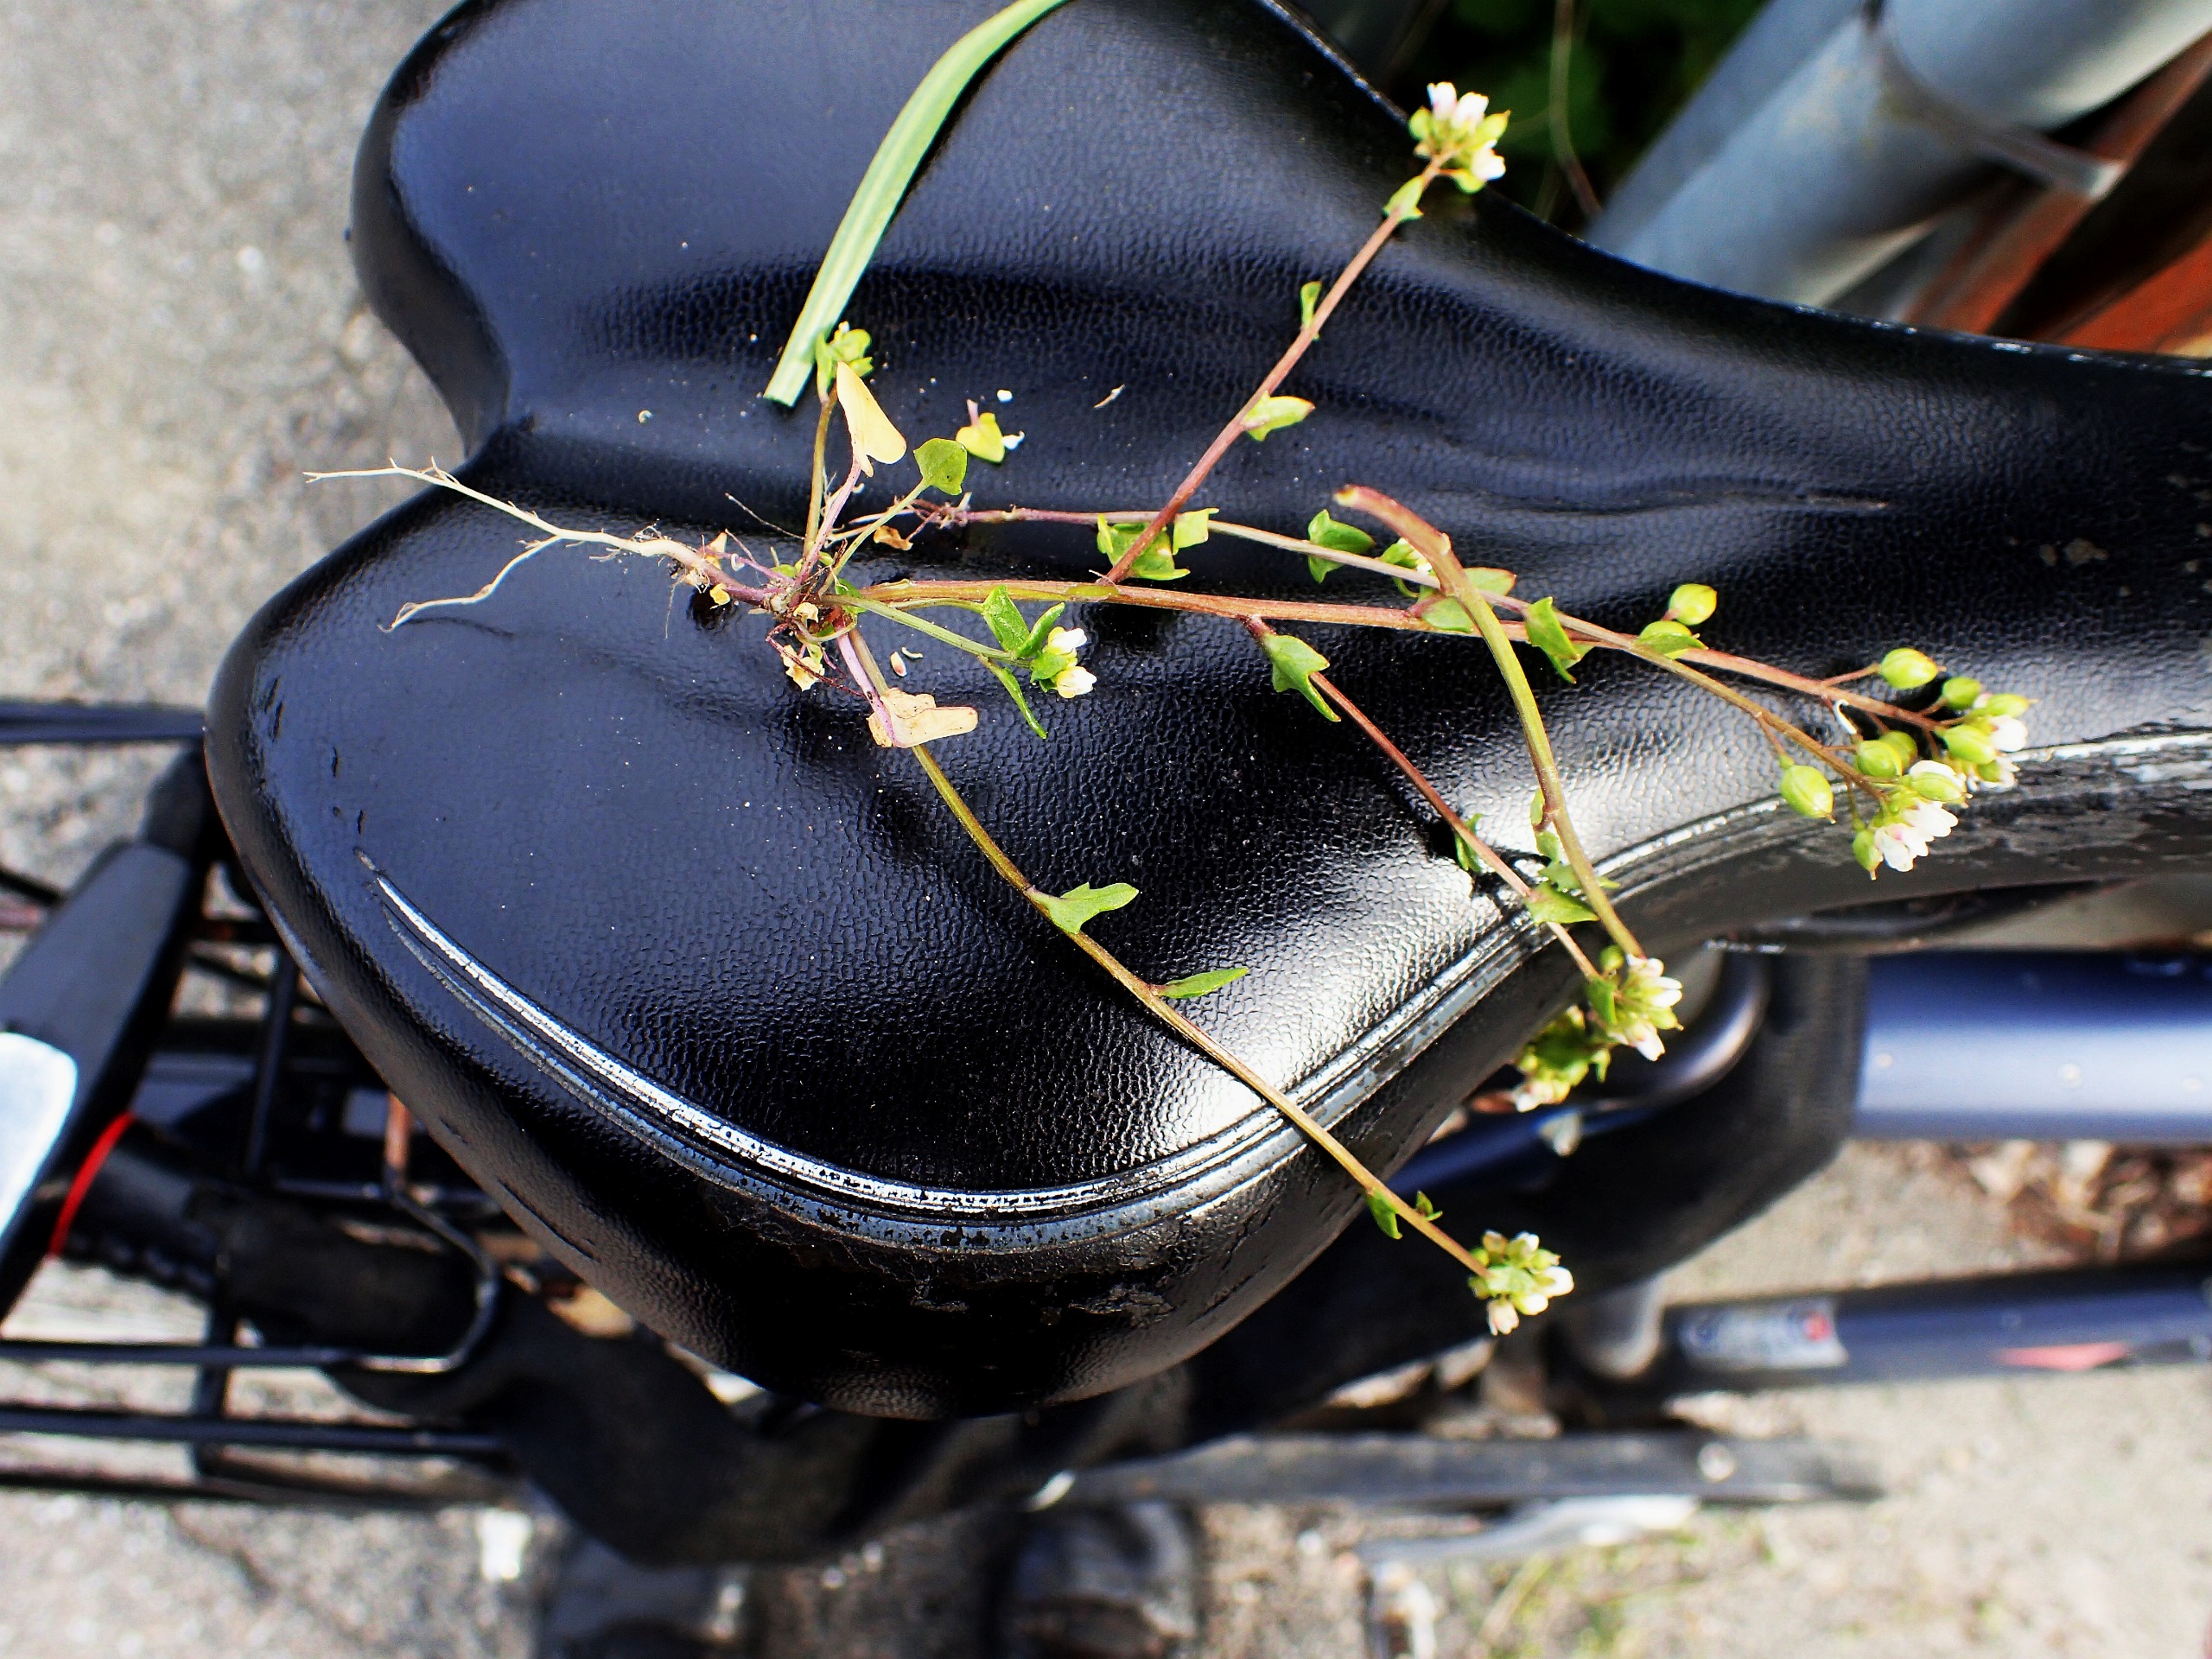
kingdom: Plantae
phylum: Tracheophyta
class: Magnoliopsida
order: Brassicales
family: Brassicaceae
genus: Cochlearia
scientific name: Cochlearia danica
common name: Dansk kokleare
